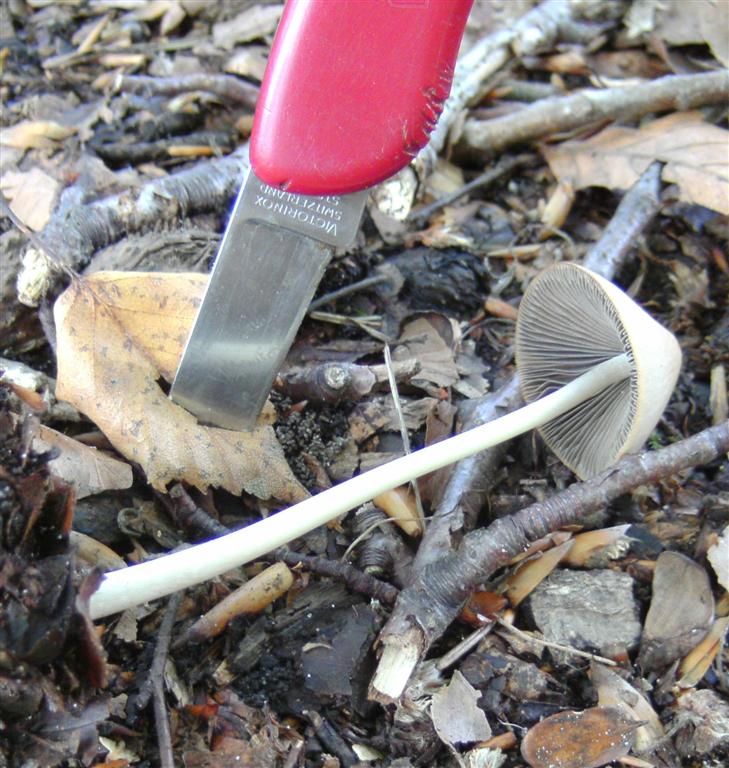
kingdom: Fungi
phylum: Basidiomycota
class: Agaricomycetes
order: Agaricales
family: Psathyrellaceae
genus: Parasola
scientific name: Parasola conopilea
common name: kegle-hjulhat
